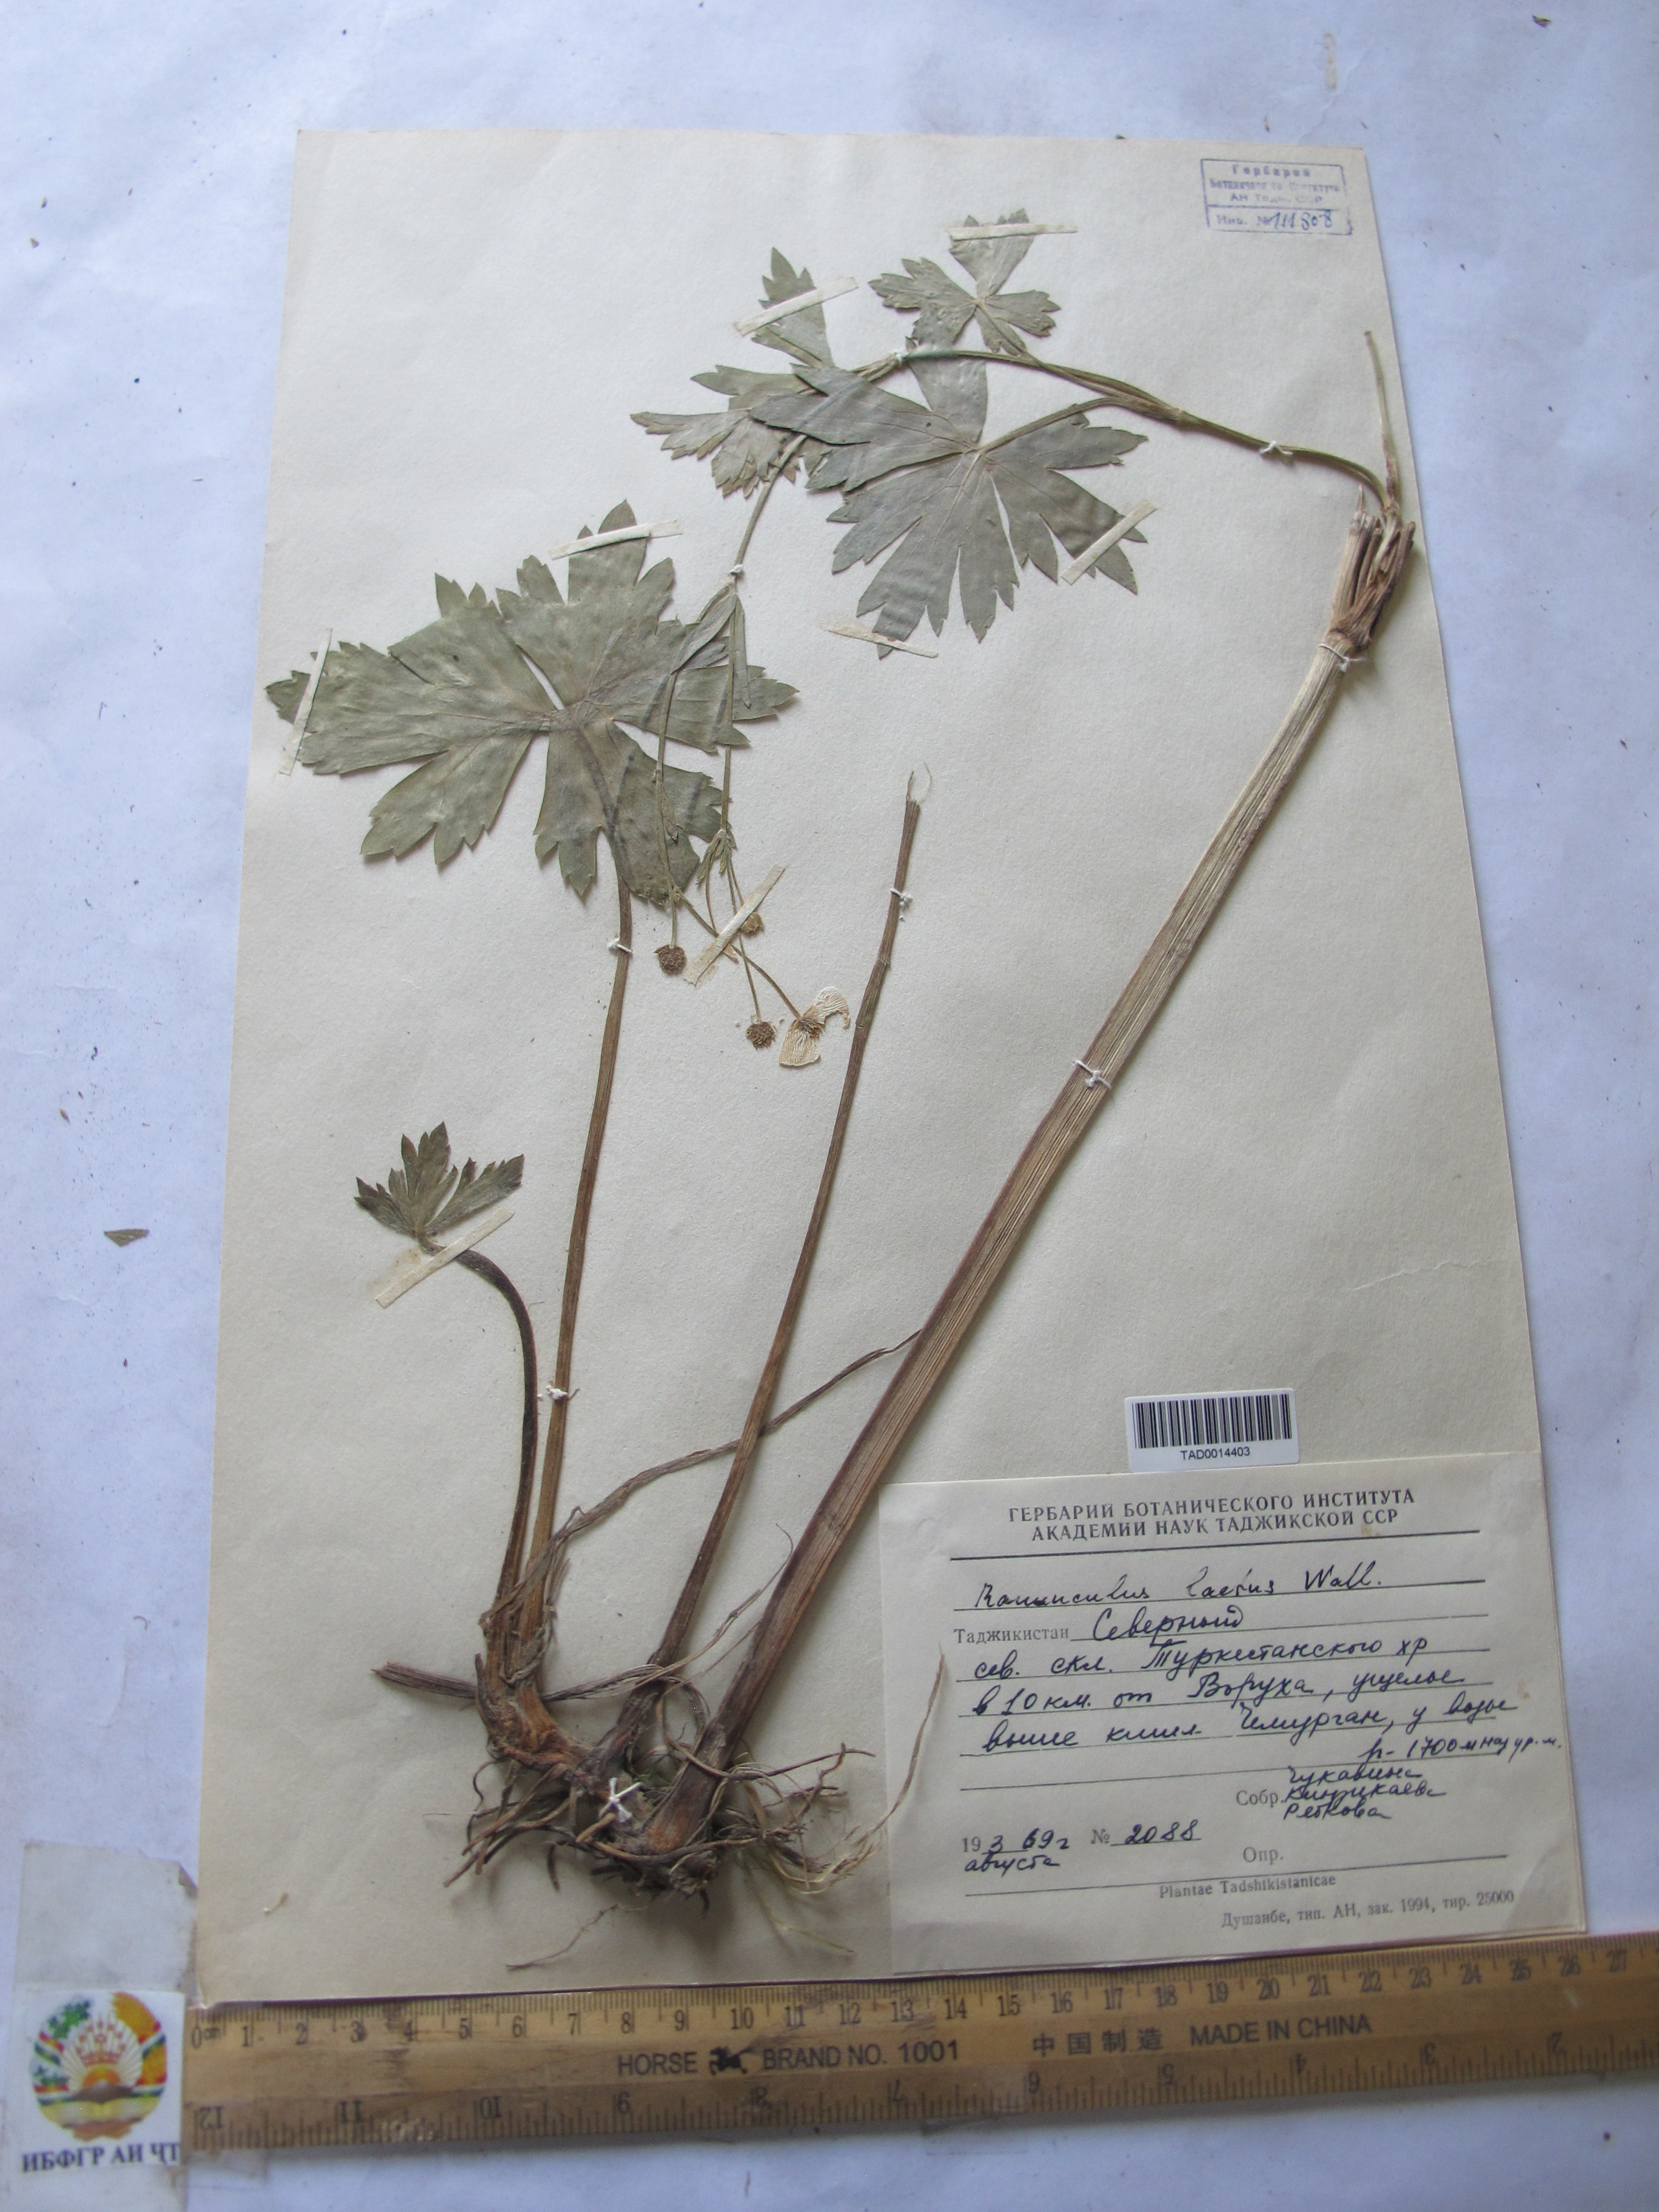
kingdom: Plantae
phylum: Tracheophyta
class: Magnoliopsida
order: Ranunculales
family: Ranunculaceae
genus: Ranunculus
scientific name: Ranunculus distans
